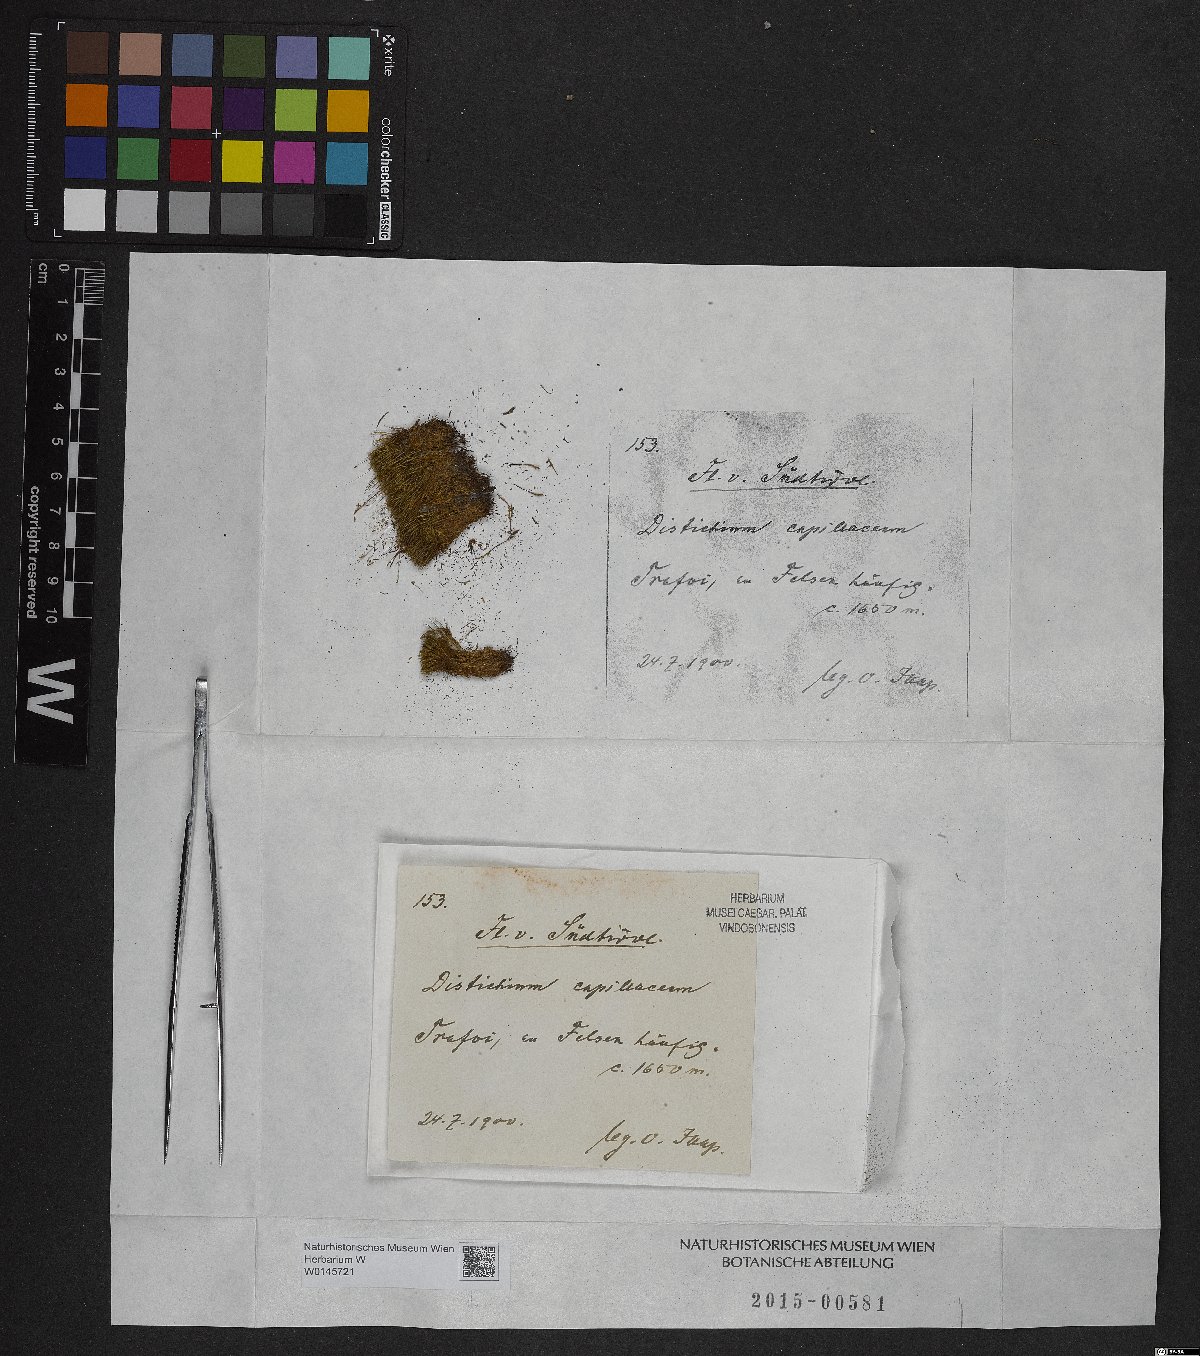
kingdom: Plantae
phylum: Bryophyta
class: Bryopsida
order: Scouleriales
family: Distichiaceae
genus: Distichium
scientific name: Distichium capillaceum
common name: Erect-fruited iris moss
